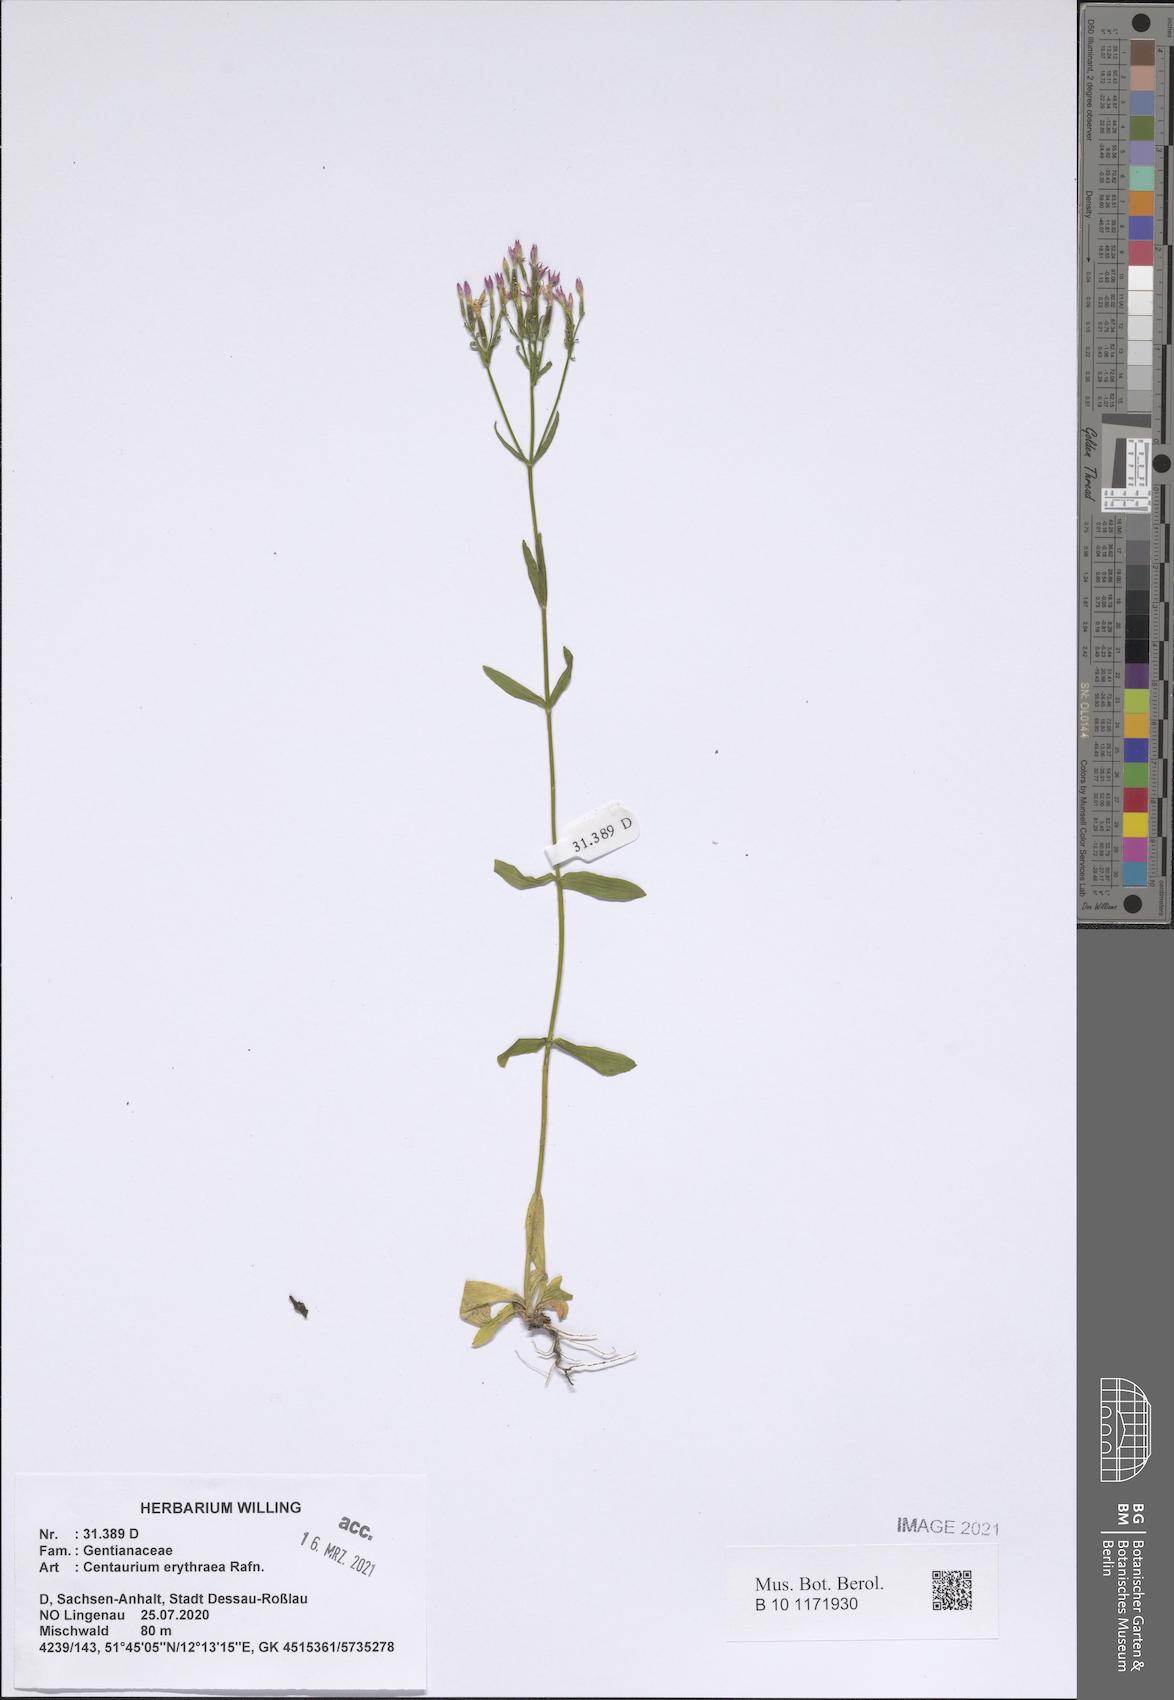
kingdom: Plantae
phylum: Tracheophyta
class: Magnoliopsida
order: Gentianales
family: Gentianaceae
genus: Centaurium
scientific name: Centaurium erythraea
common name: Common centaury
